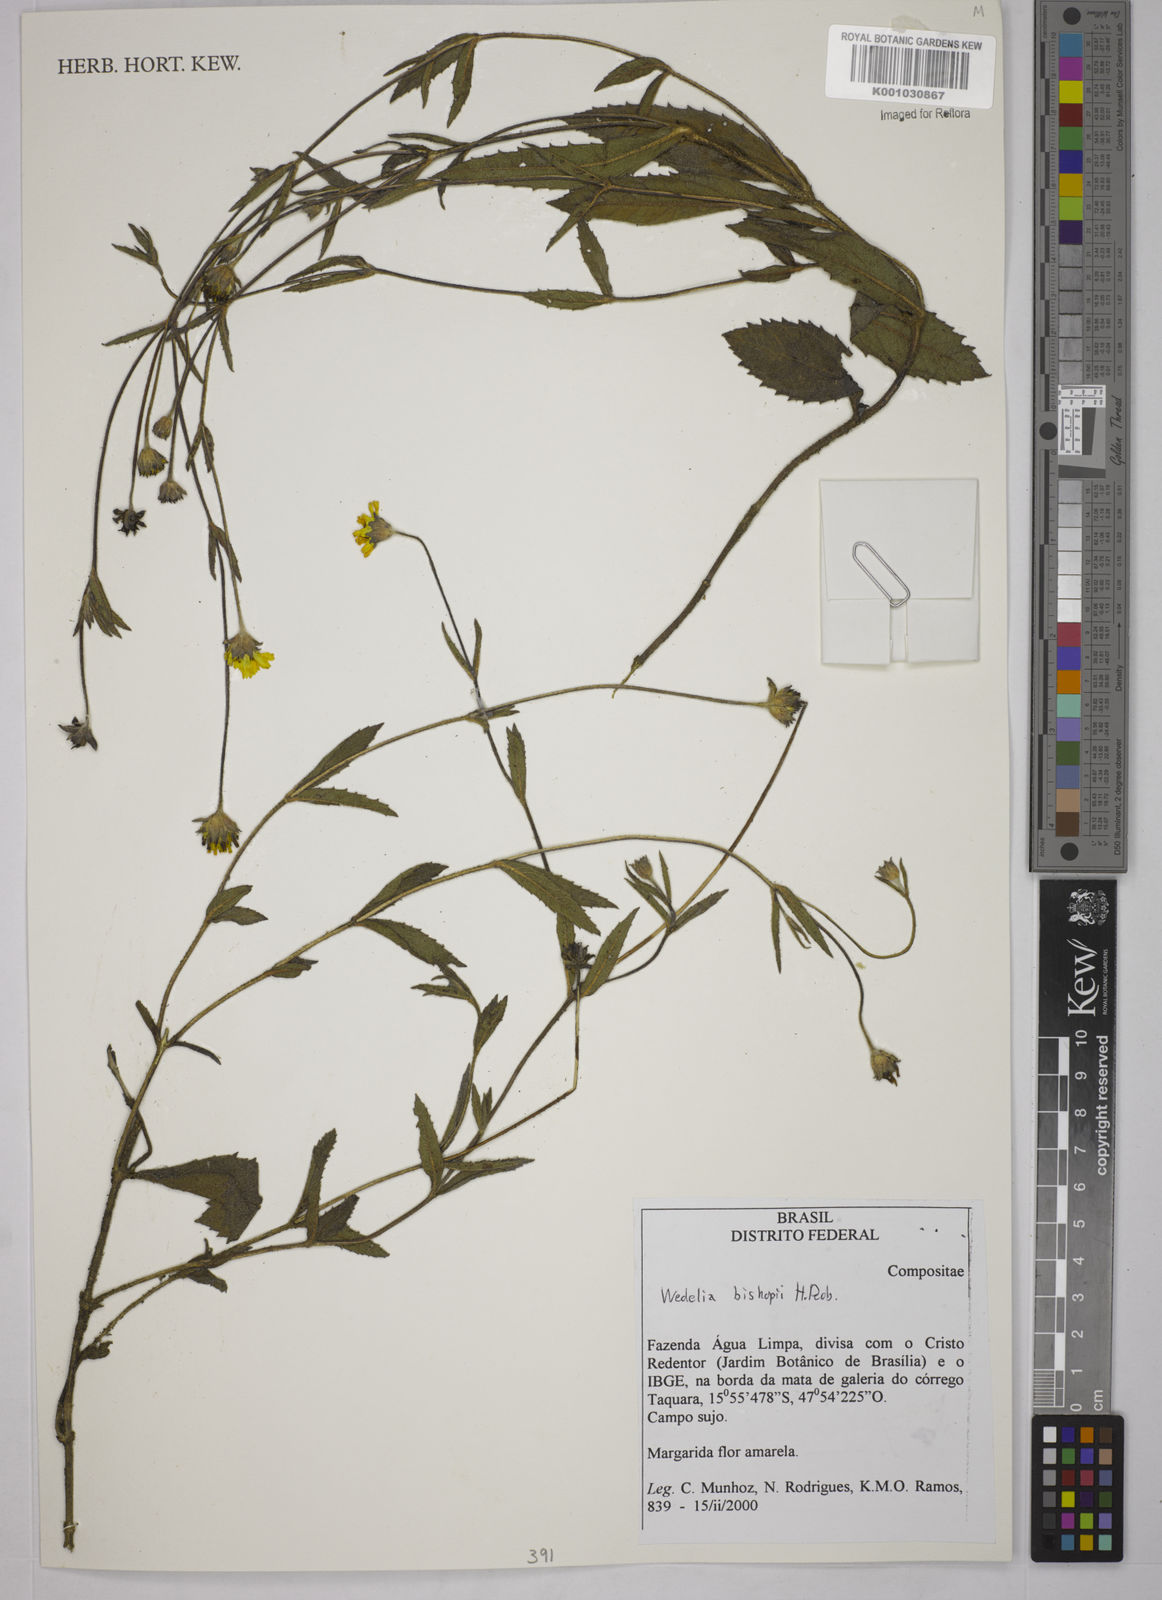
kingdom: Plantae
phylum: Tracheophyta
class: Magnoliopsida
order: Asterales
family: Asteraceae
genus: Wedelia
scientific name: Wedelia bishopii
